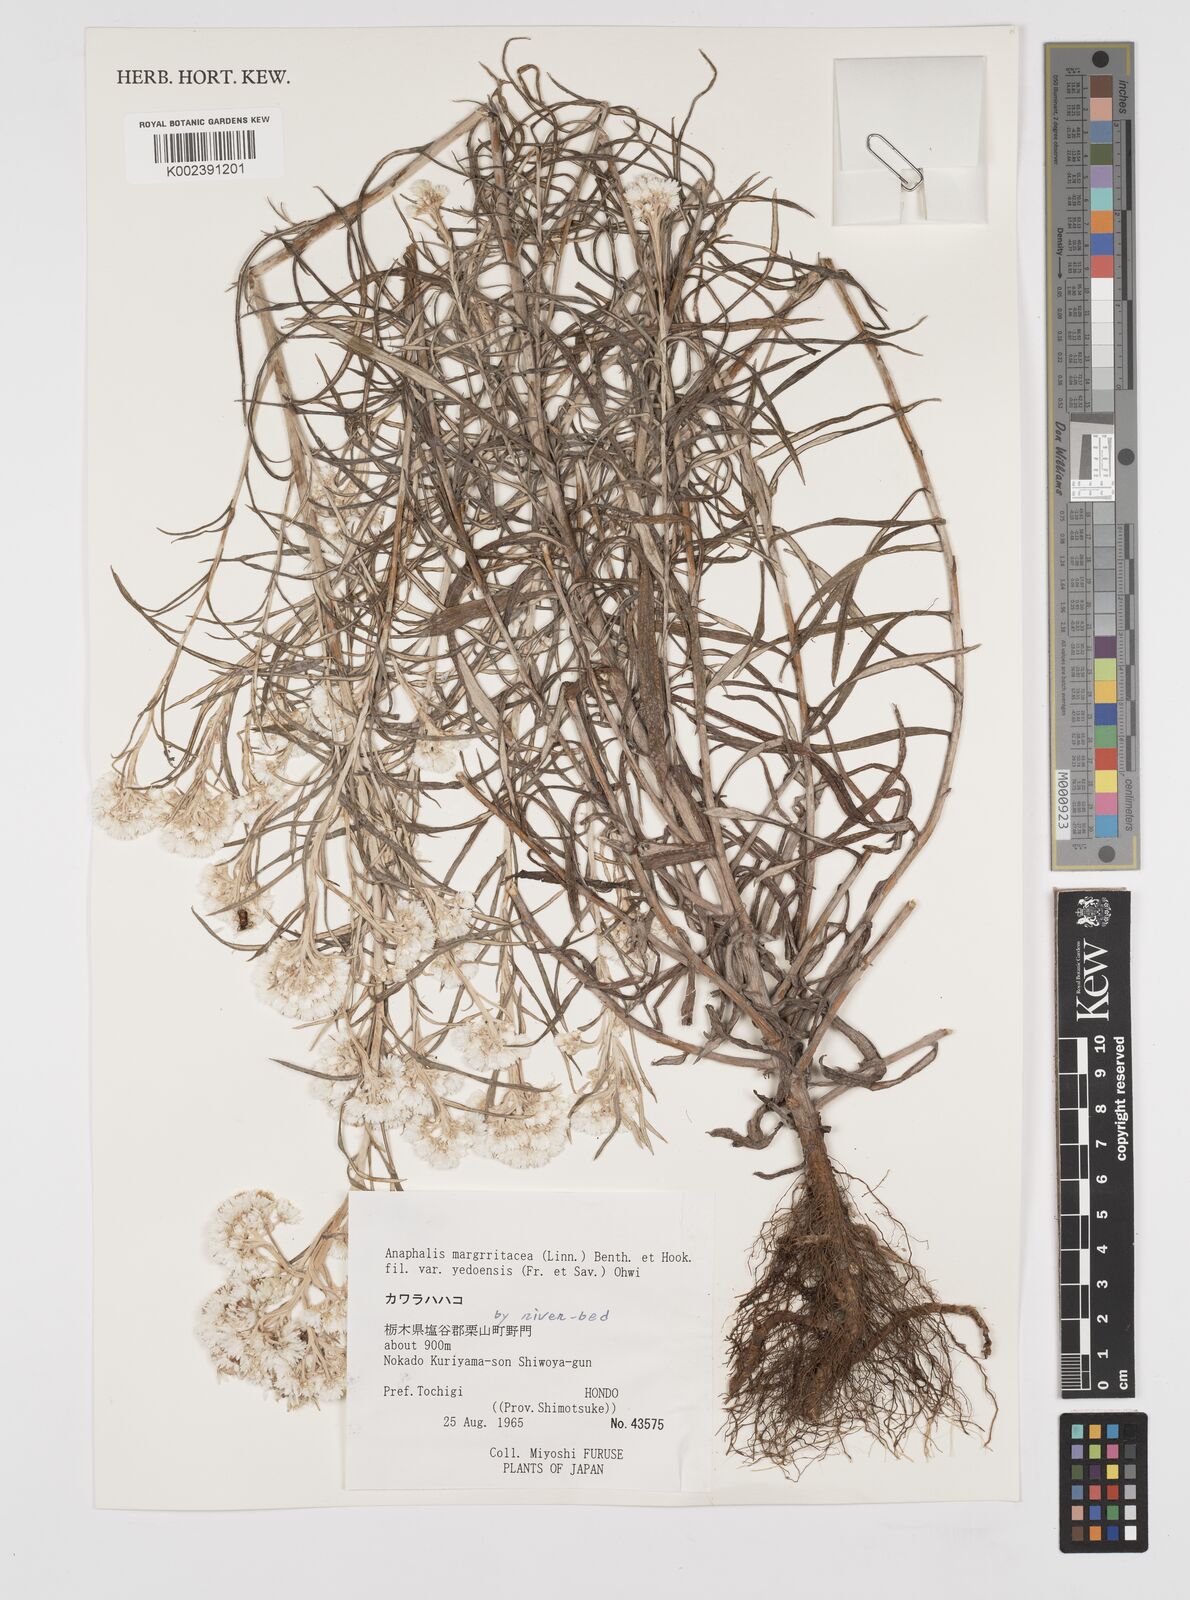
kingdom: Plantae
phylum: Tracheophyta
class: Magnoliopsida
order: Asterales
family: Asteraceae
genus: Anaphalis
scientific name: Anaphalis margaritacea
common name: Pearly everlasting
